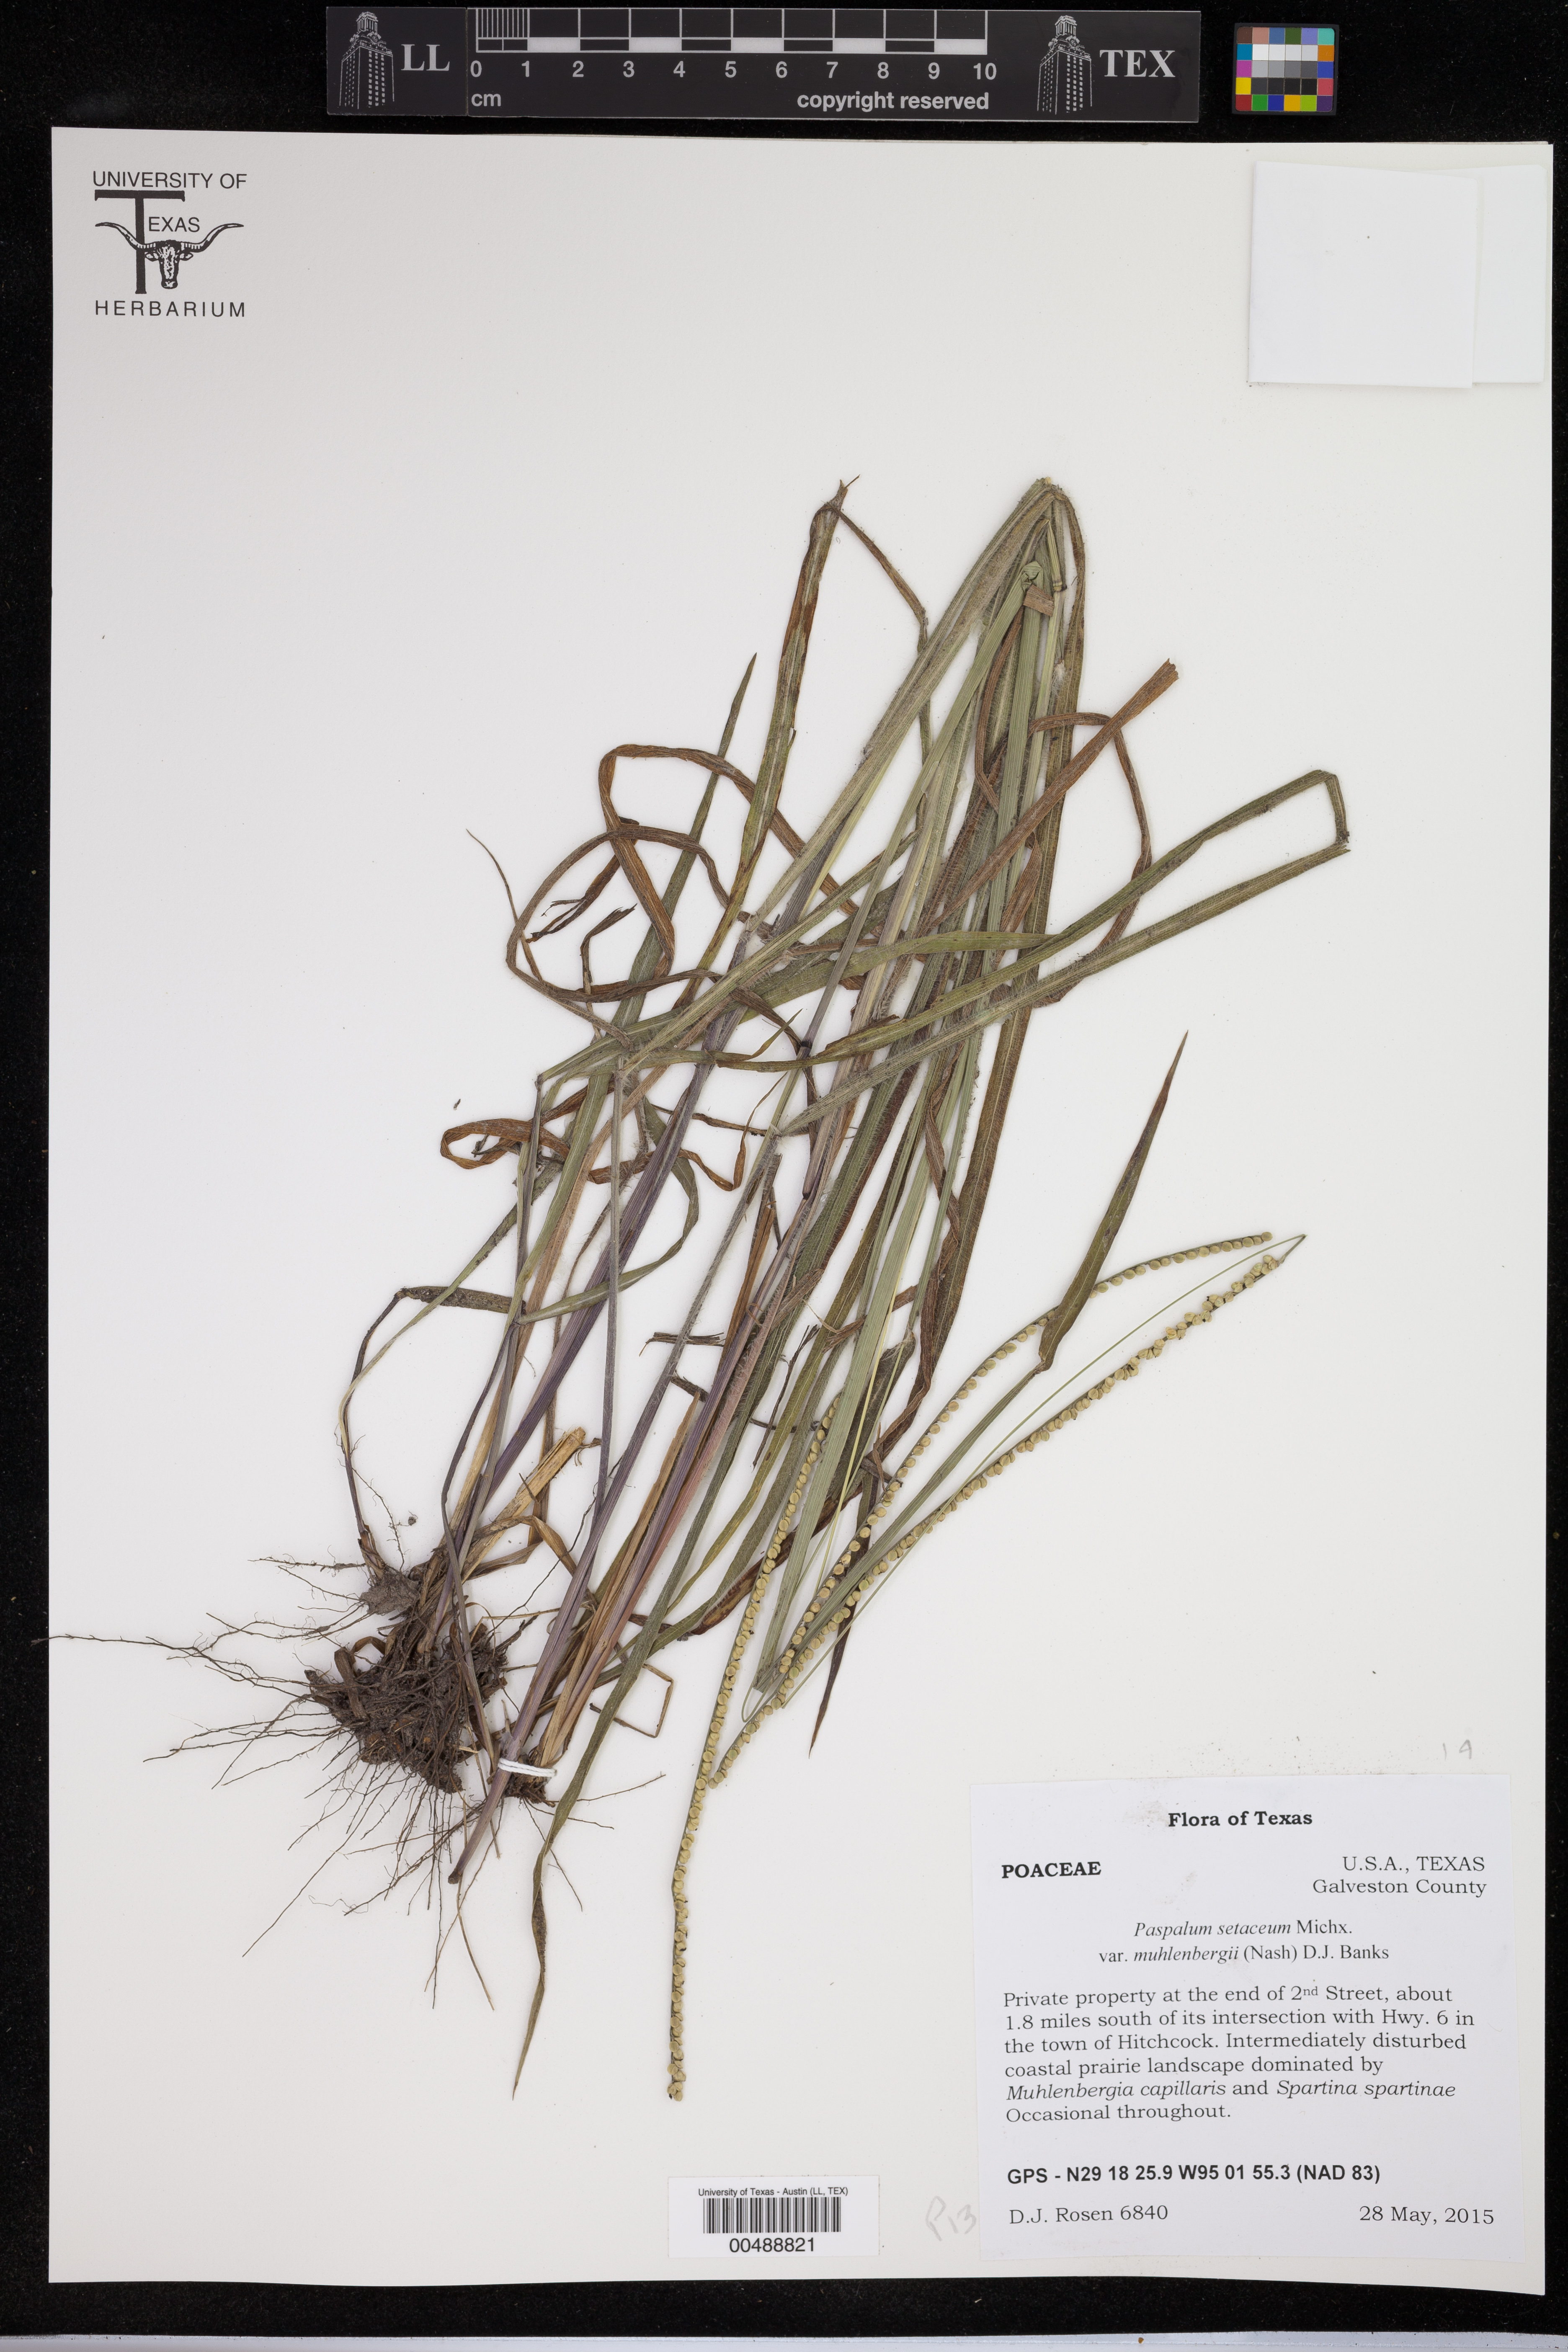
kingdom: Plantae
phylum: Tracheophyta
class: Liliopsida
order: Poales
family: Poaceae
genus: Paspalum
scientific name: Paspalum setaceum
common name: Slender paspalum
